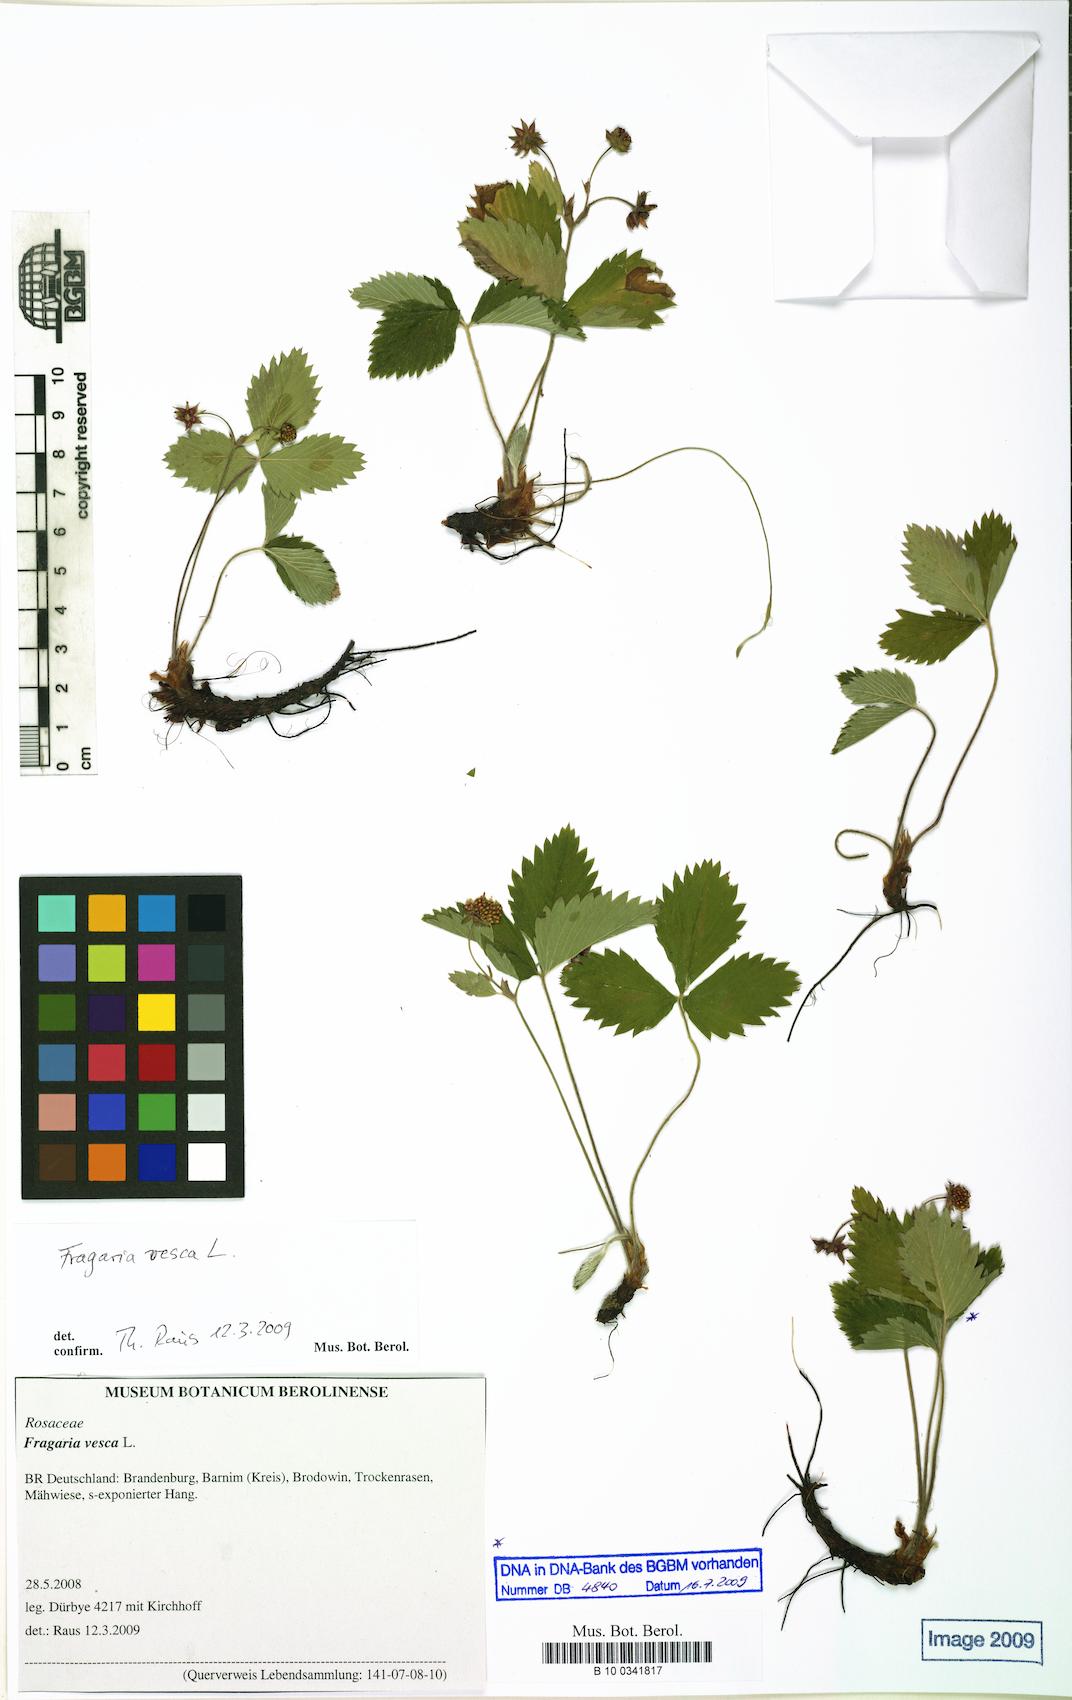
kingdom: Plantae
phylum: Tracheophyta
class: Magnoliopsida
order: Rosales
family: Rosaceae
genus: Fragaria
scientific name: Fragaria vesca
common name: Wild strawberry
